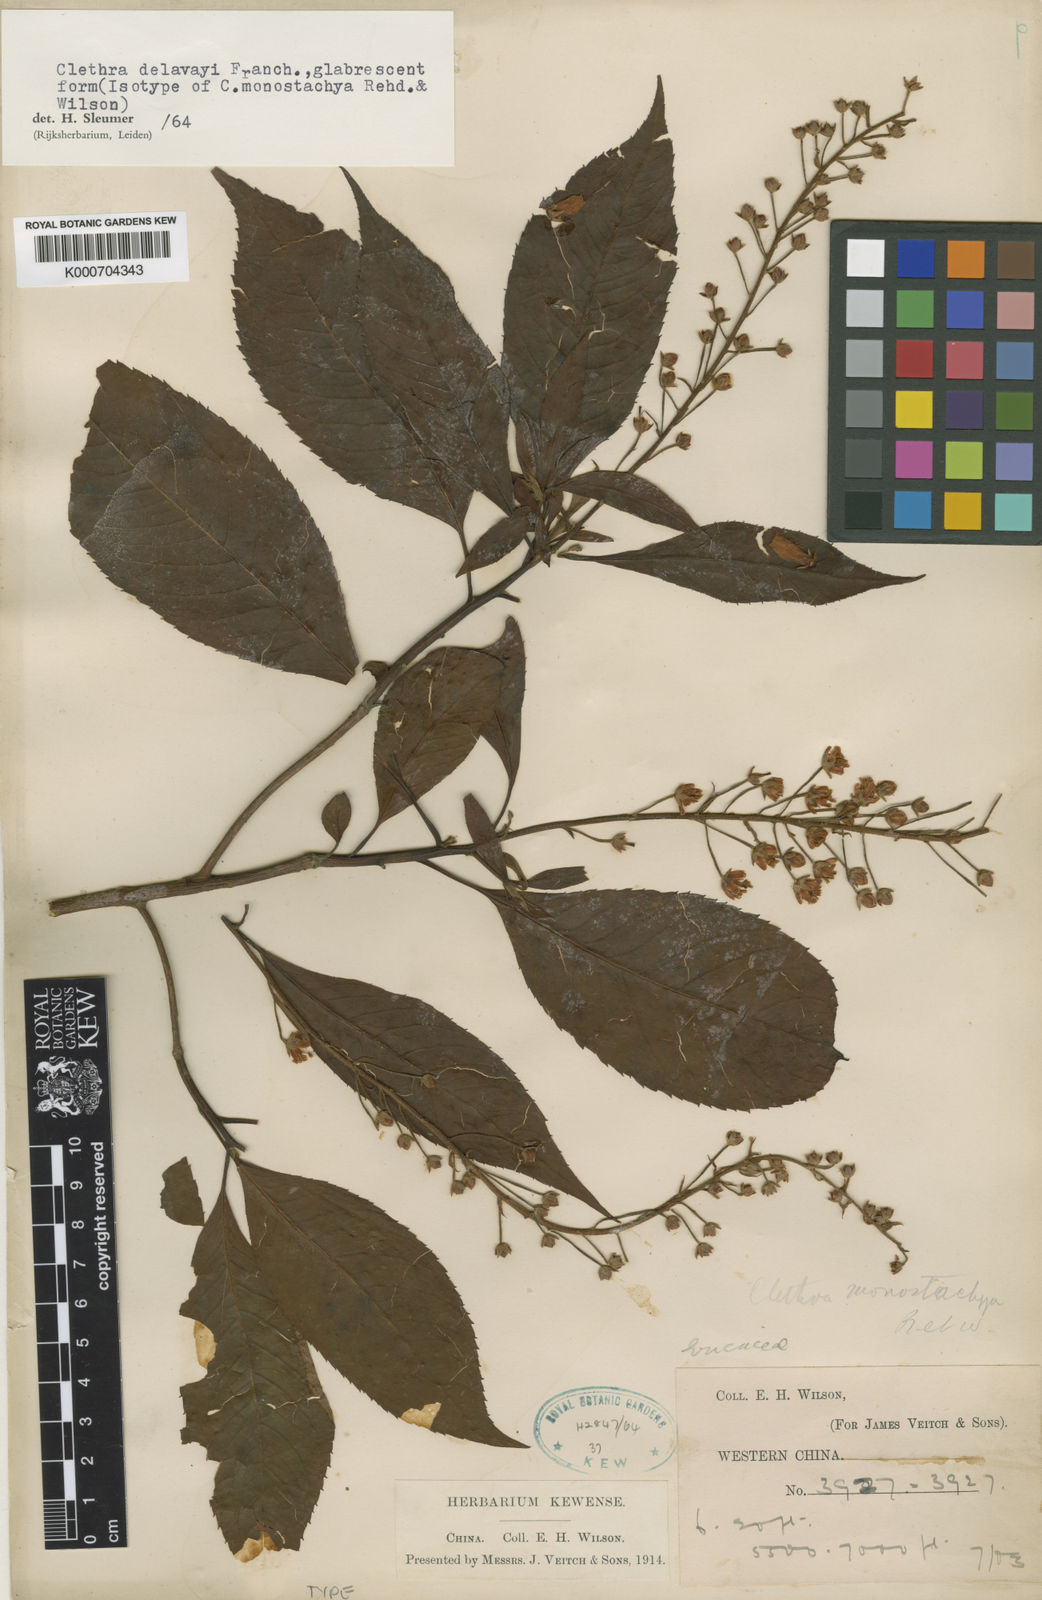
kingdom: Plantae
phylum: Tracheophyta
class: Magnoliopsida
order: Ericales
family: Clethraceae
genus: Clethra
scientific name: Clethra delavayi
